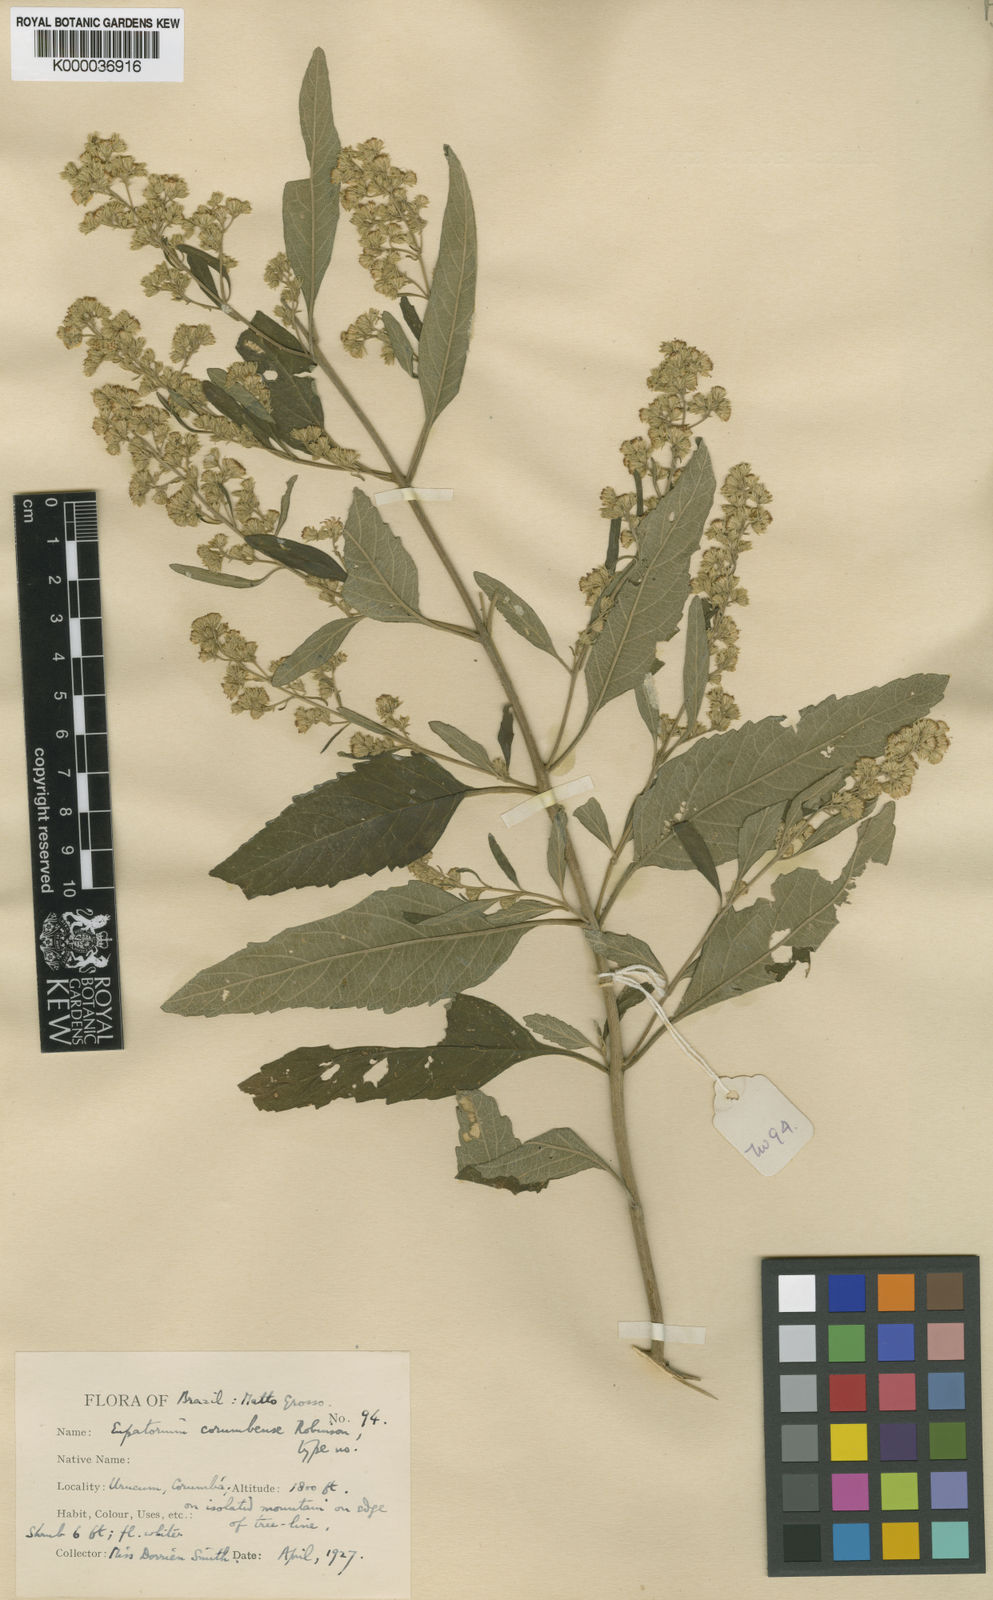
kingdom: Plantae
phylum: Tracheophyta
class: Magnoliopsida
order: Asterales
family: Asteraceae
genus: Stomatanthes
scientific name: Stomatanthes corumbensis
